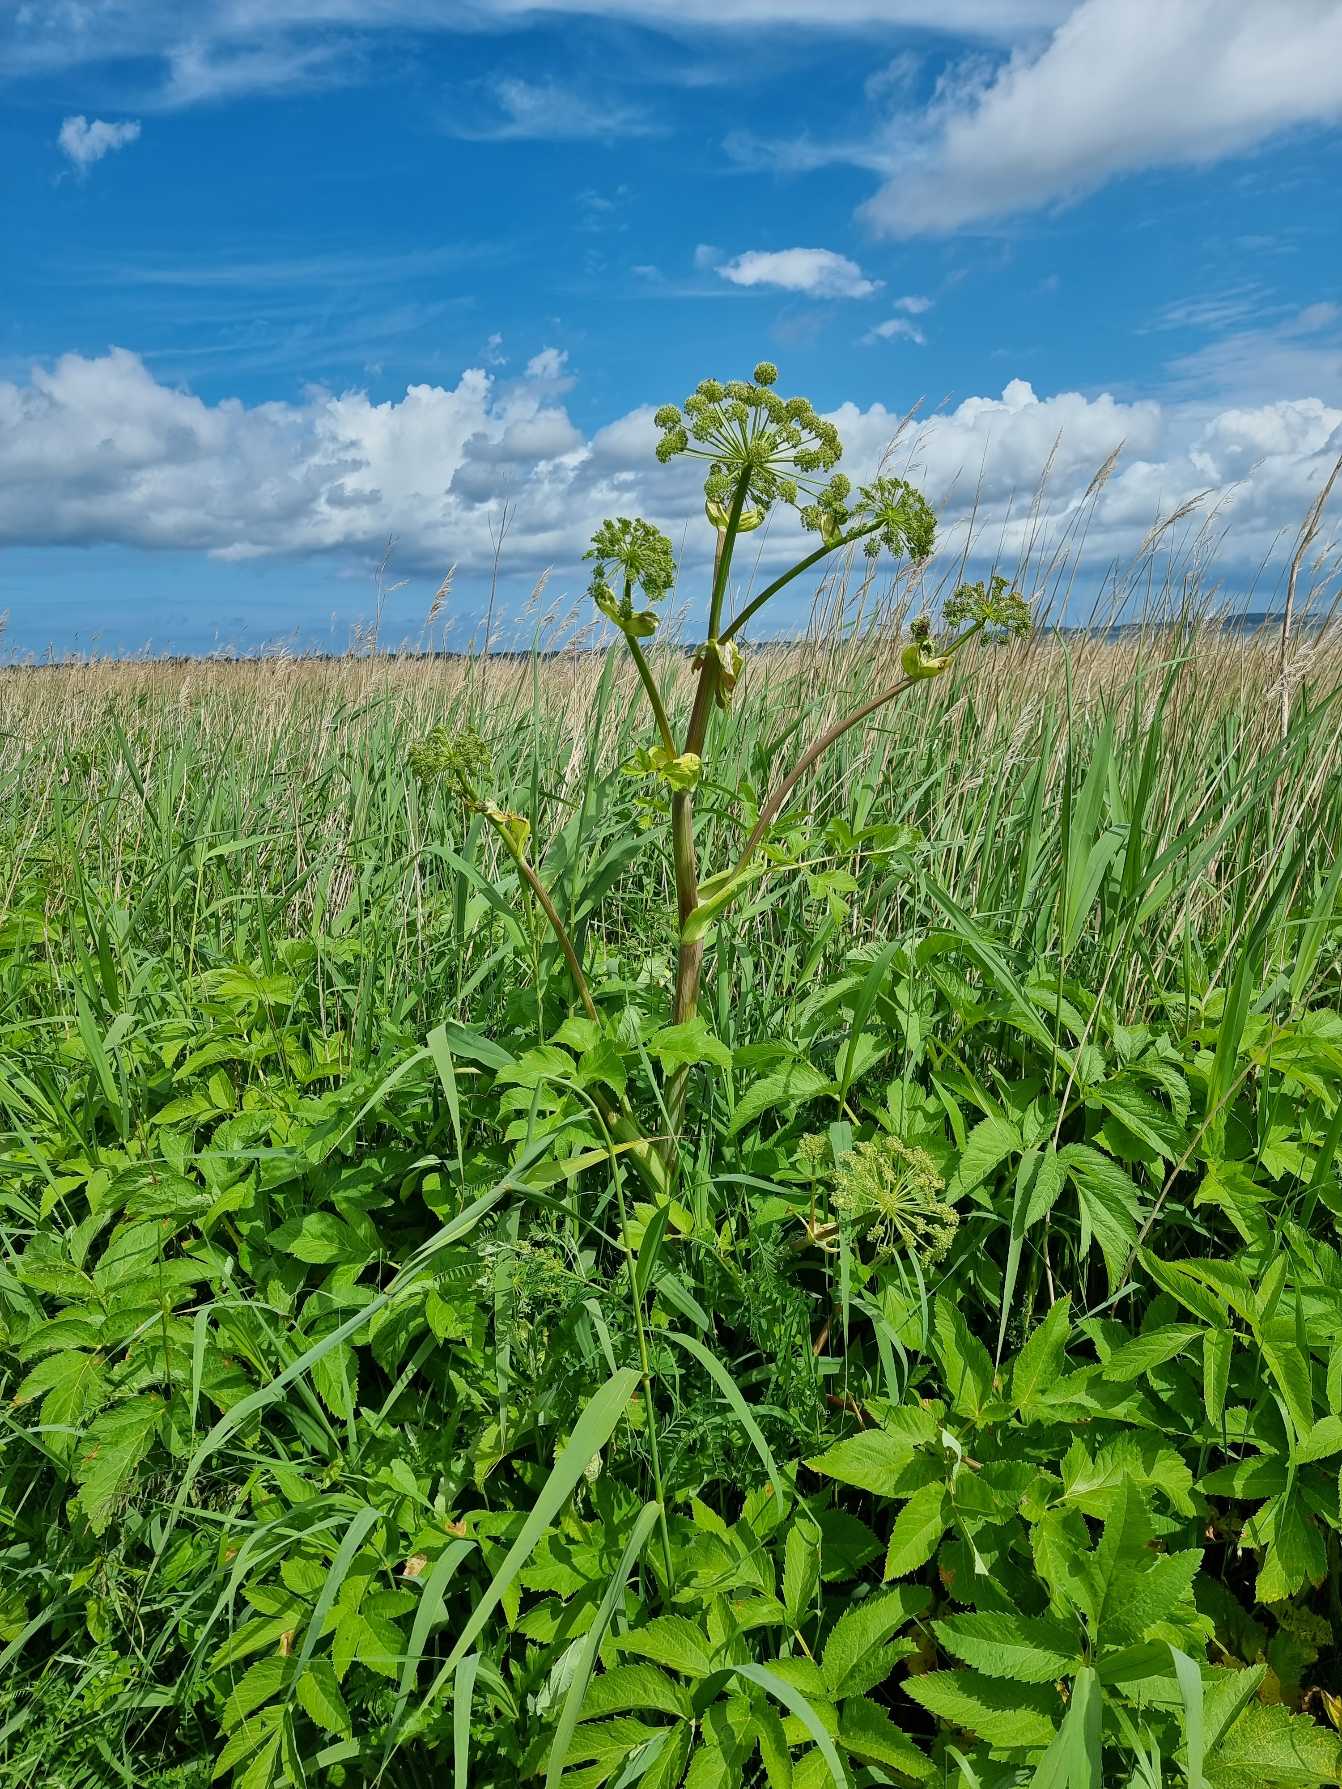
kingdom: Plantae
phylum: Tracheophyta
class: Magnoliopsida
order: Apiales
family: Apiaceae
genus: Angelica
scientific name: Angelica archangelica
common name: Fjeld-kvan
